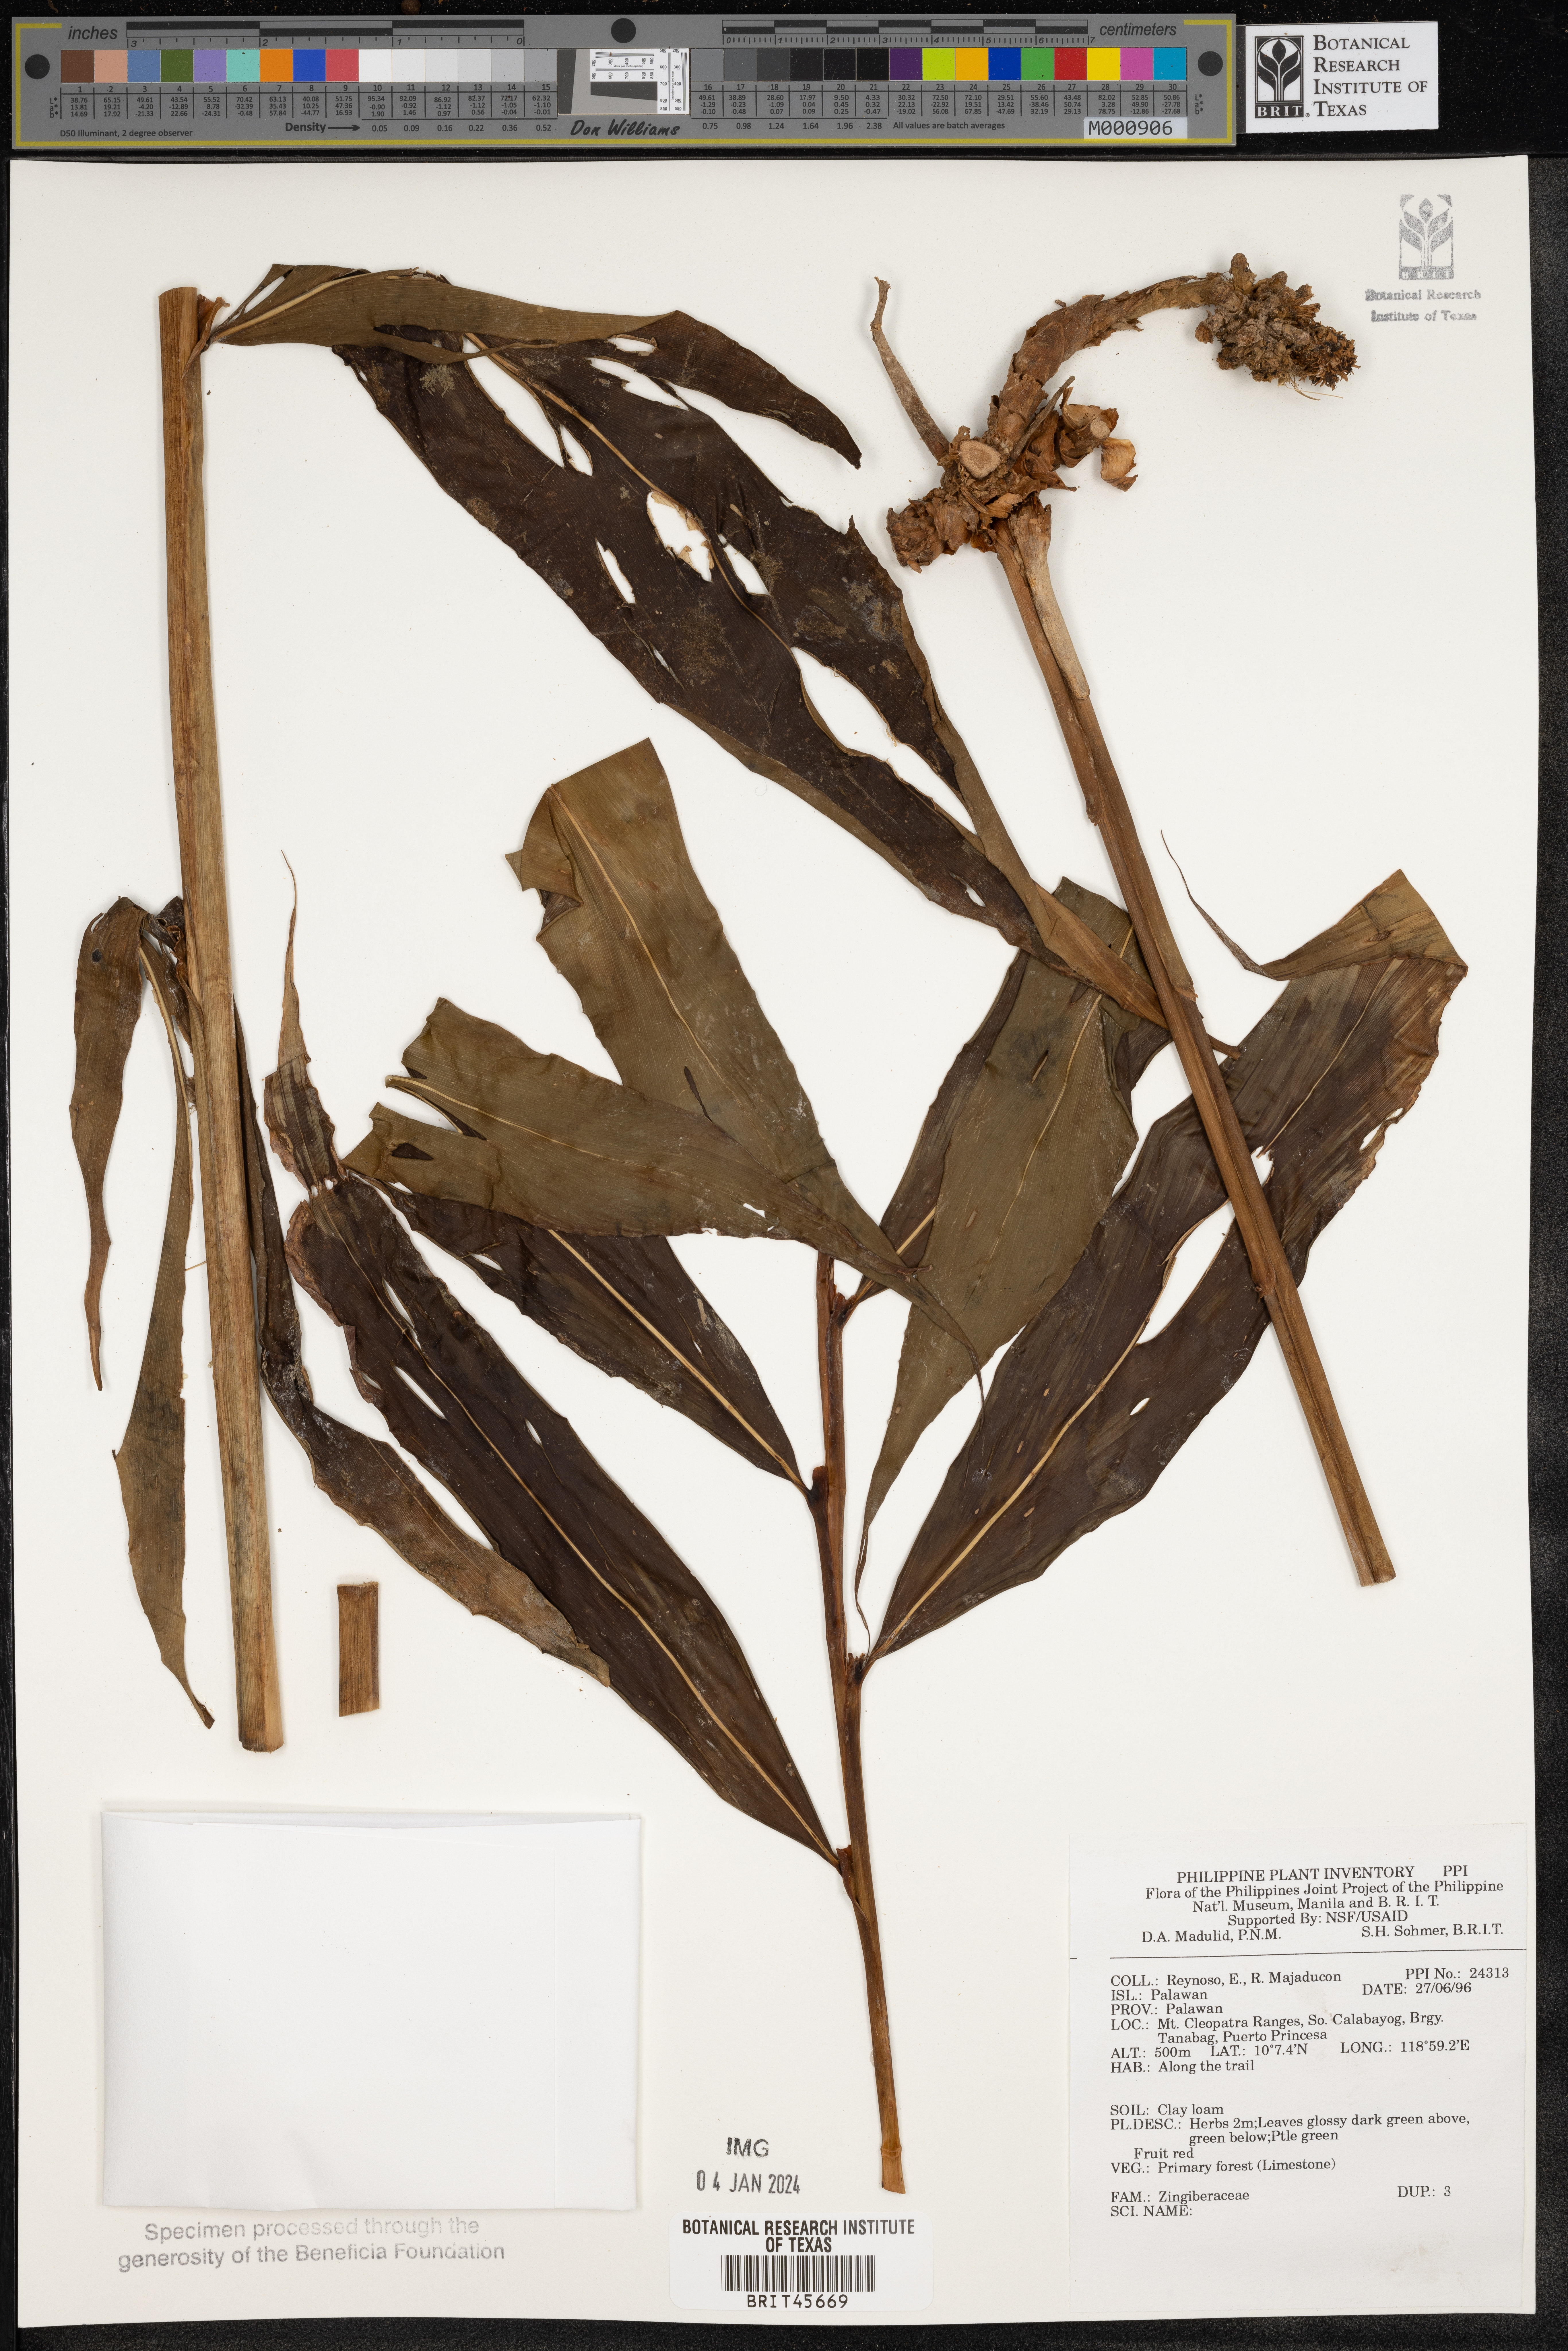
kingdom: Plantae
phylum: Tracheophyta
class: Liliopsida
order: Zingiberales
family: Zingiberaceae
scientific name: Zingiberaceae
